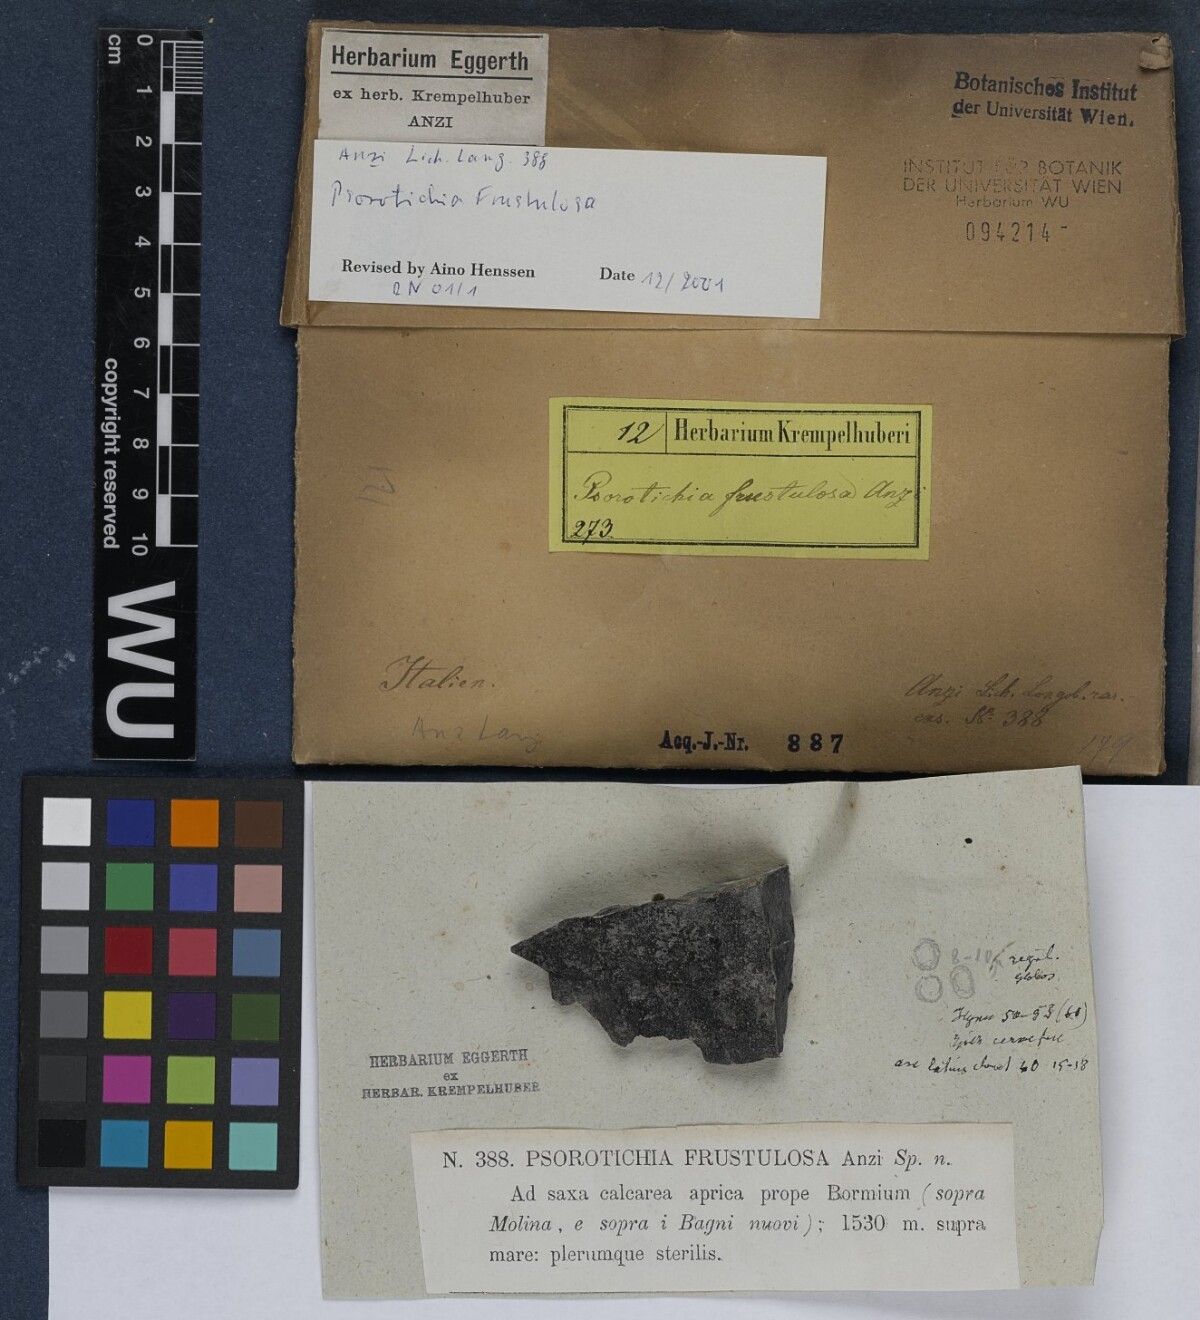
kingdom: Fungi
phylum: Ascomycota
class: Lichinomycetes
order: Lichinales
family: Lichinaceae
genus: Psorotichia
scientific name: Psorotichia frustulosa
